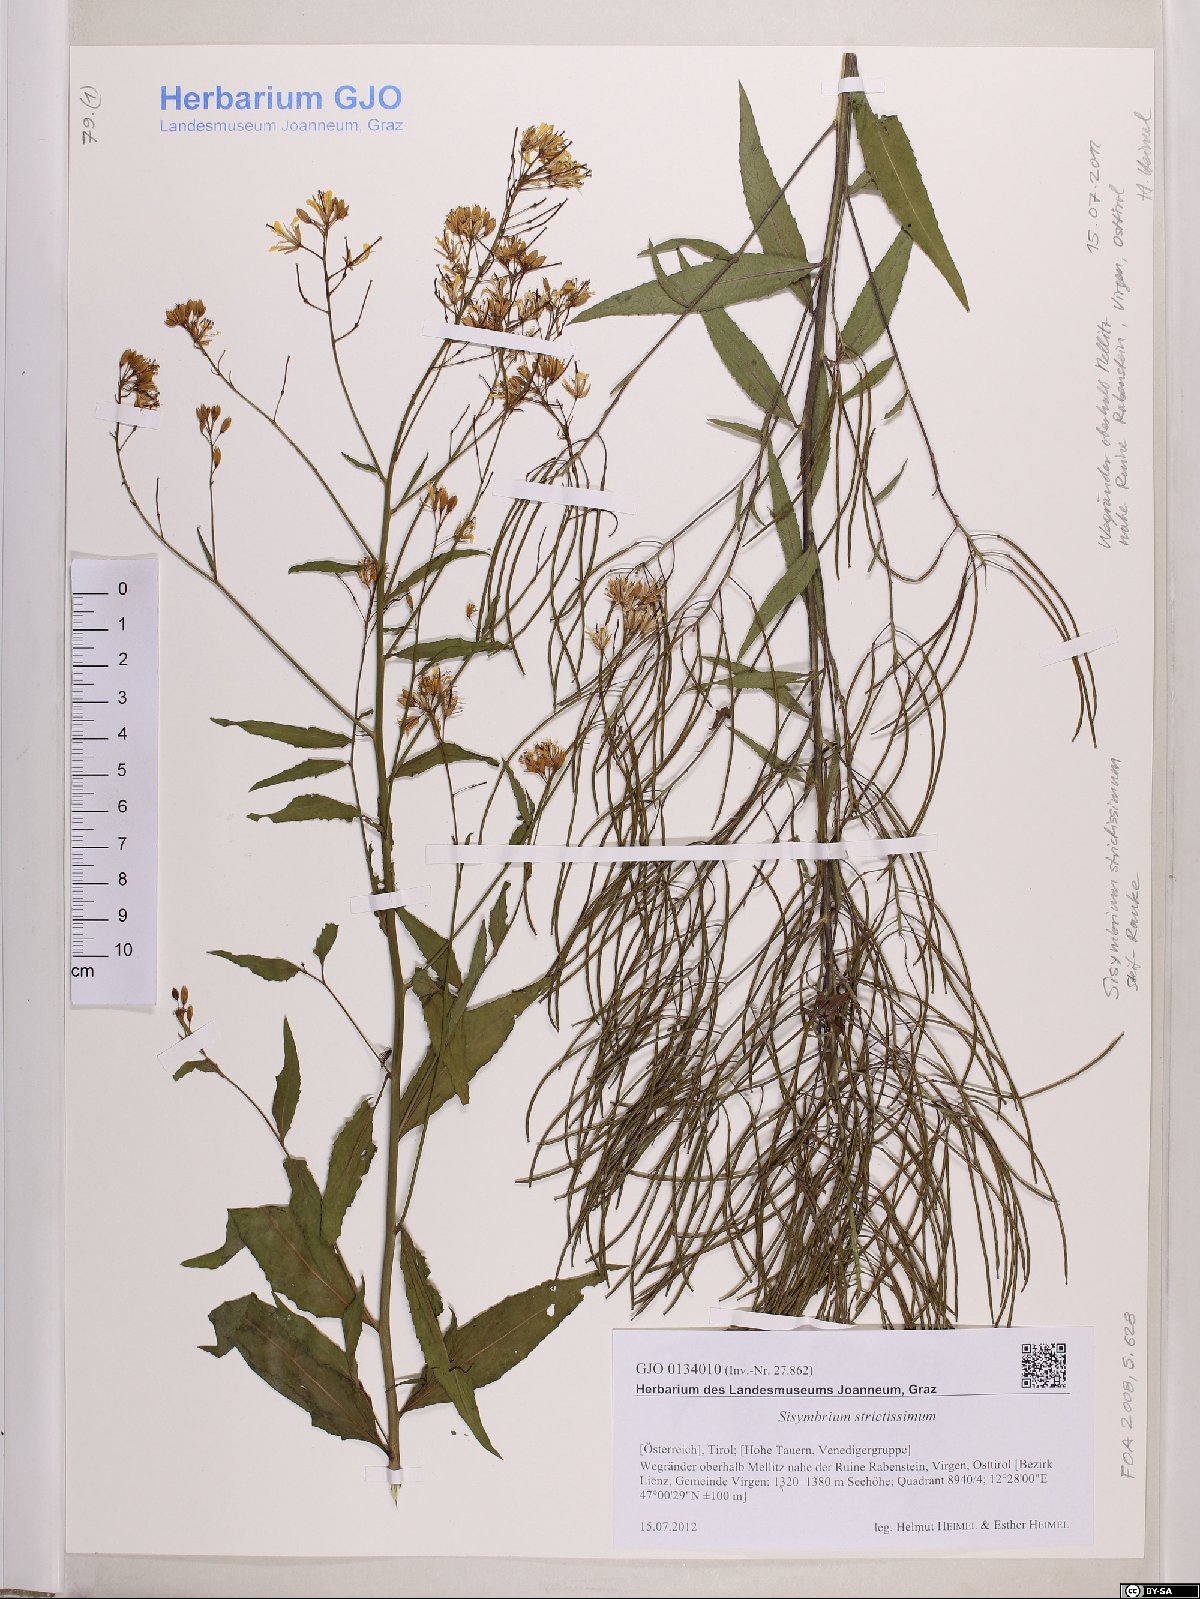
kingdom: Plantae
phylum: Tracheophyta
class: Magnoliopsida
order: Brassicales
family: Brassicaceae
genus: Sisymbrium
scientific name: Sisymbrium strictissimum
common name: Perennial rocket
